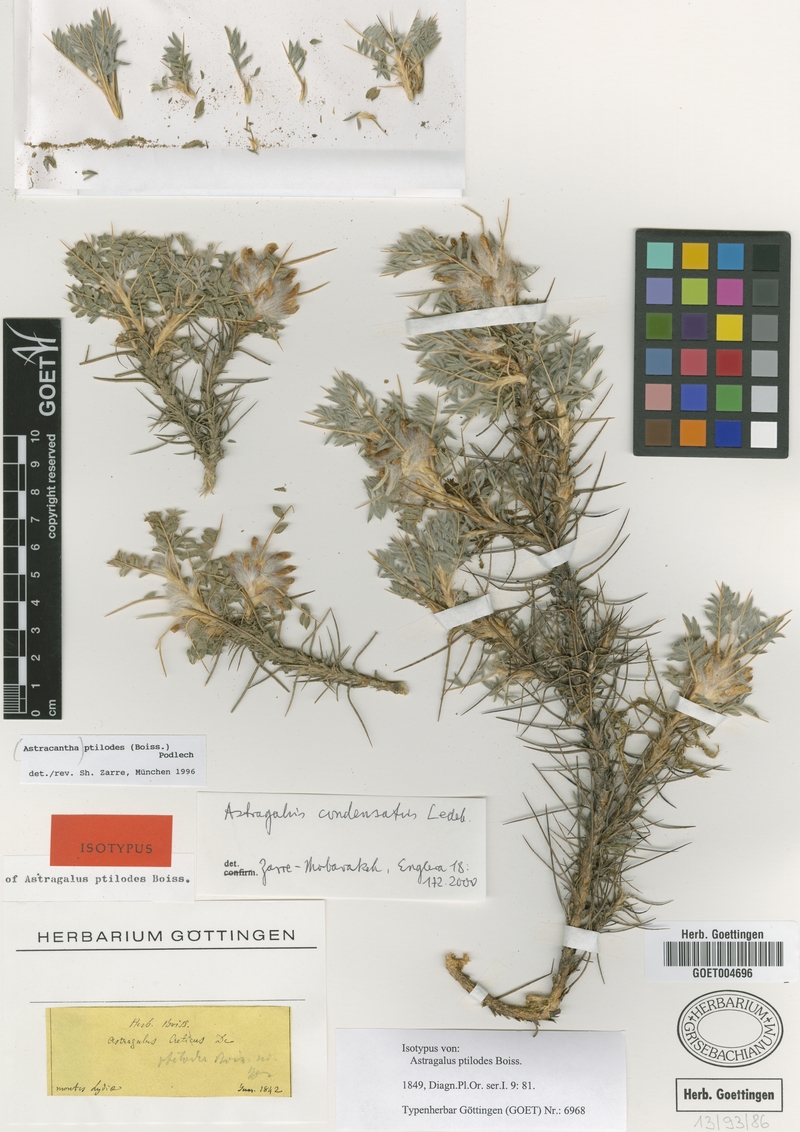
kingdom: Plantae
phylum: Tracheophyta
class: Magnoliopsida
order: Fabales
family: Fabaceae
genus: Astragalus
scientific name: Astragalus condensatus
